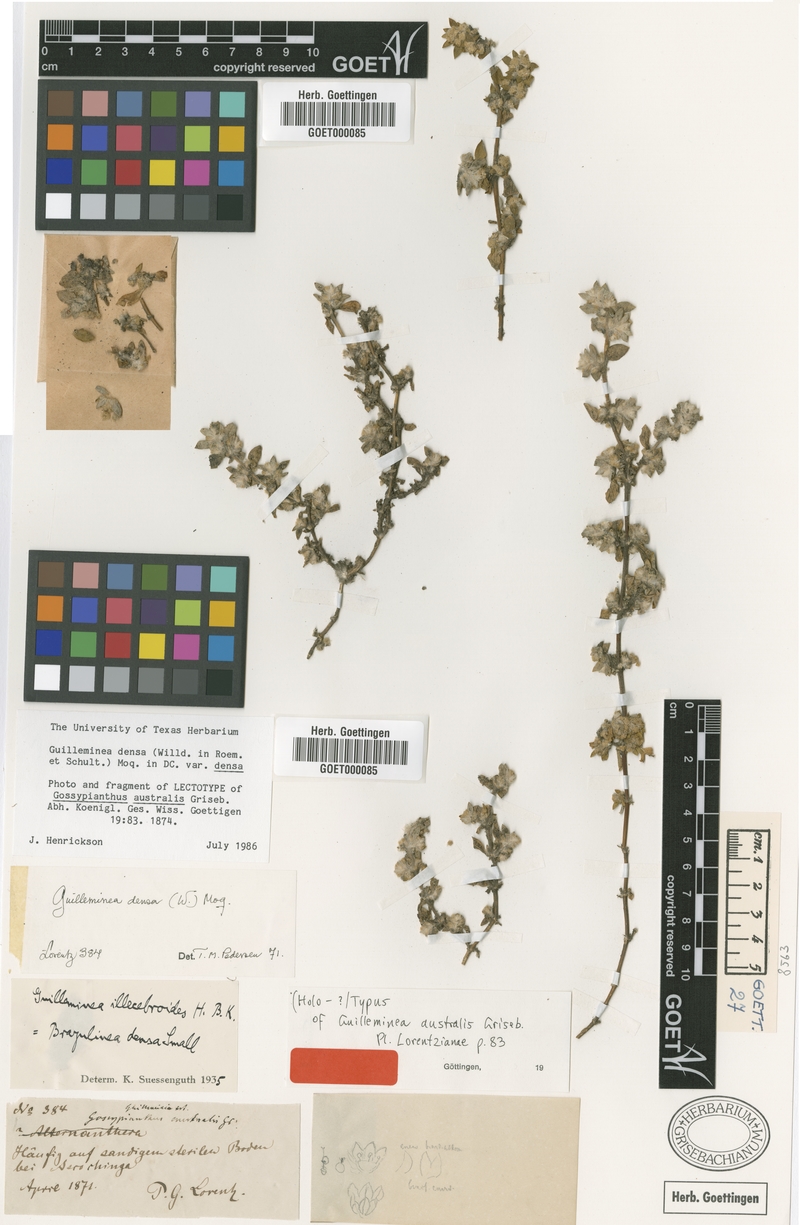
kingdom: Plantae
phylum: Tracheophyta
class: Magnoliopsida
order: Caryophyllales
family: Amaranthaceae
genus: Guilleminea
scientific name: Guilleminea densa
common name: Small matweed
